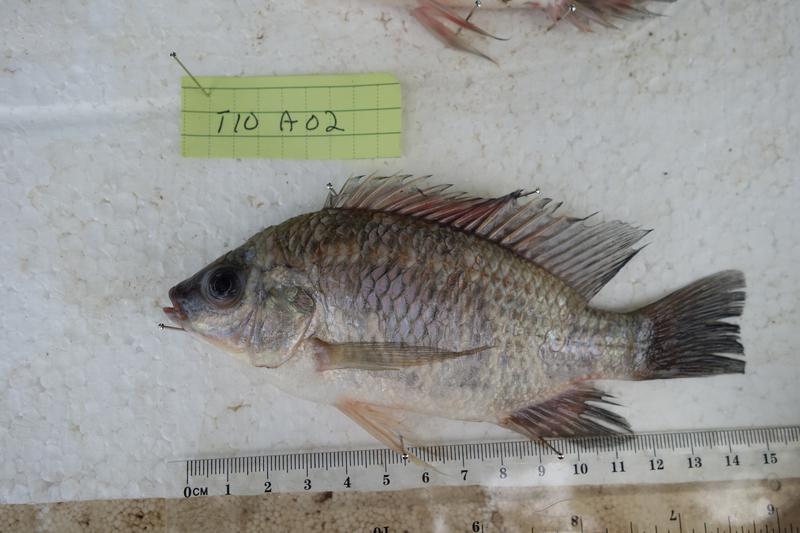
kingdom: Animalia
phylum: Chordata
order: Perciformes
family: Cichlidae
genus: Oreochromis
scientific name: Oreochromis rukwaensis
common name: Lake rukwa tilapia
